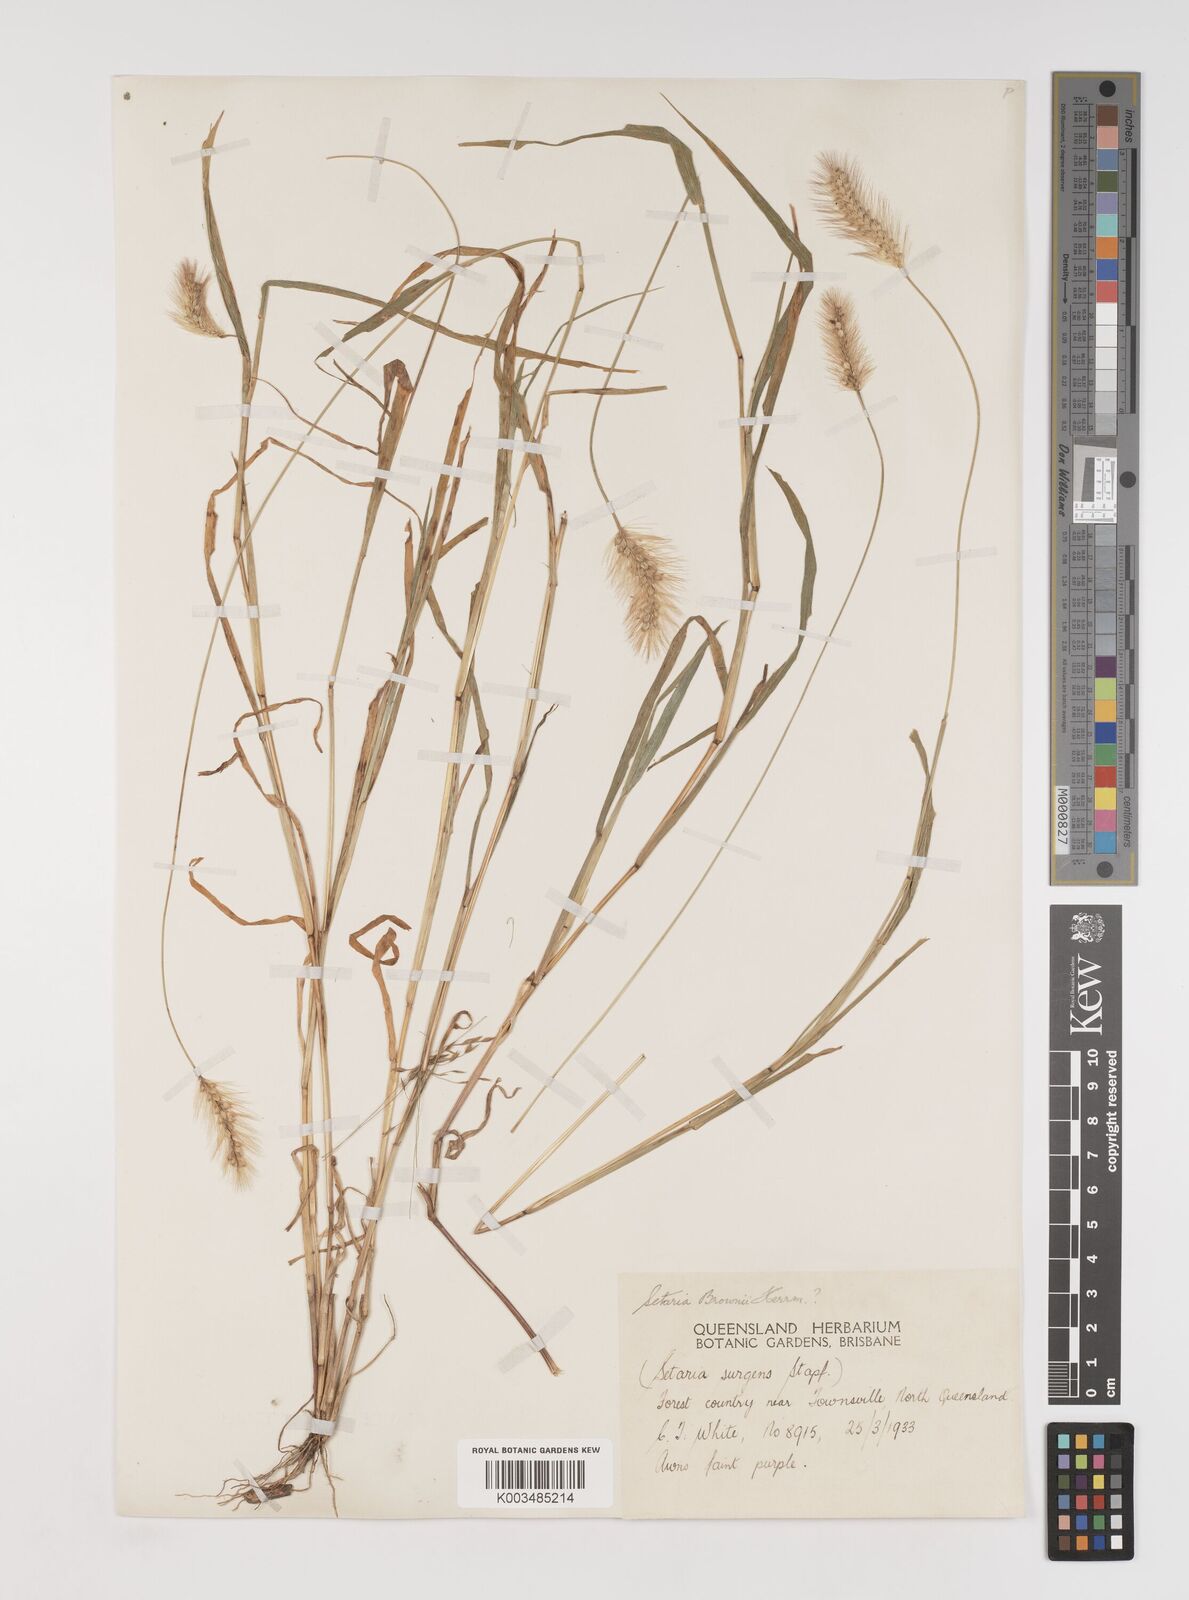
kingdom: Plantae
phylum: Tracheophyta
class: Liliopsida
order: Poales
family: Poaceae
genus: Setaria
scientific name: Setaria surgens
